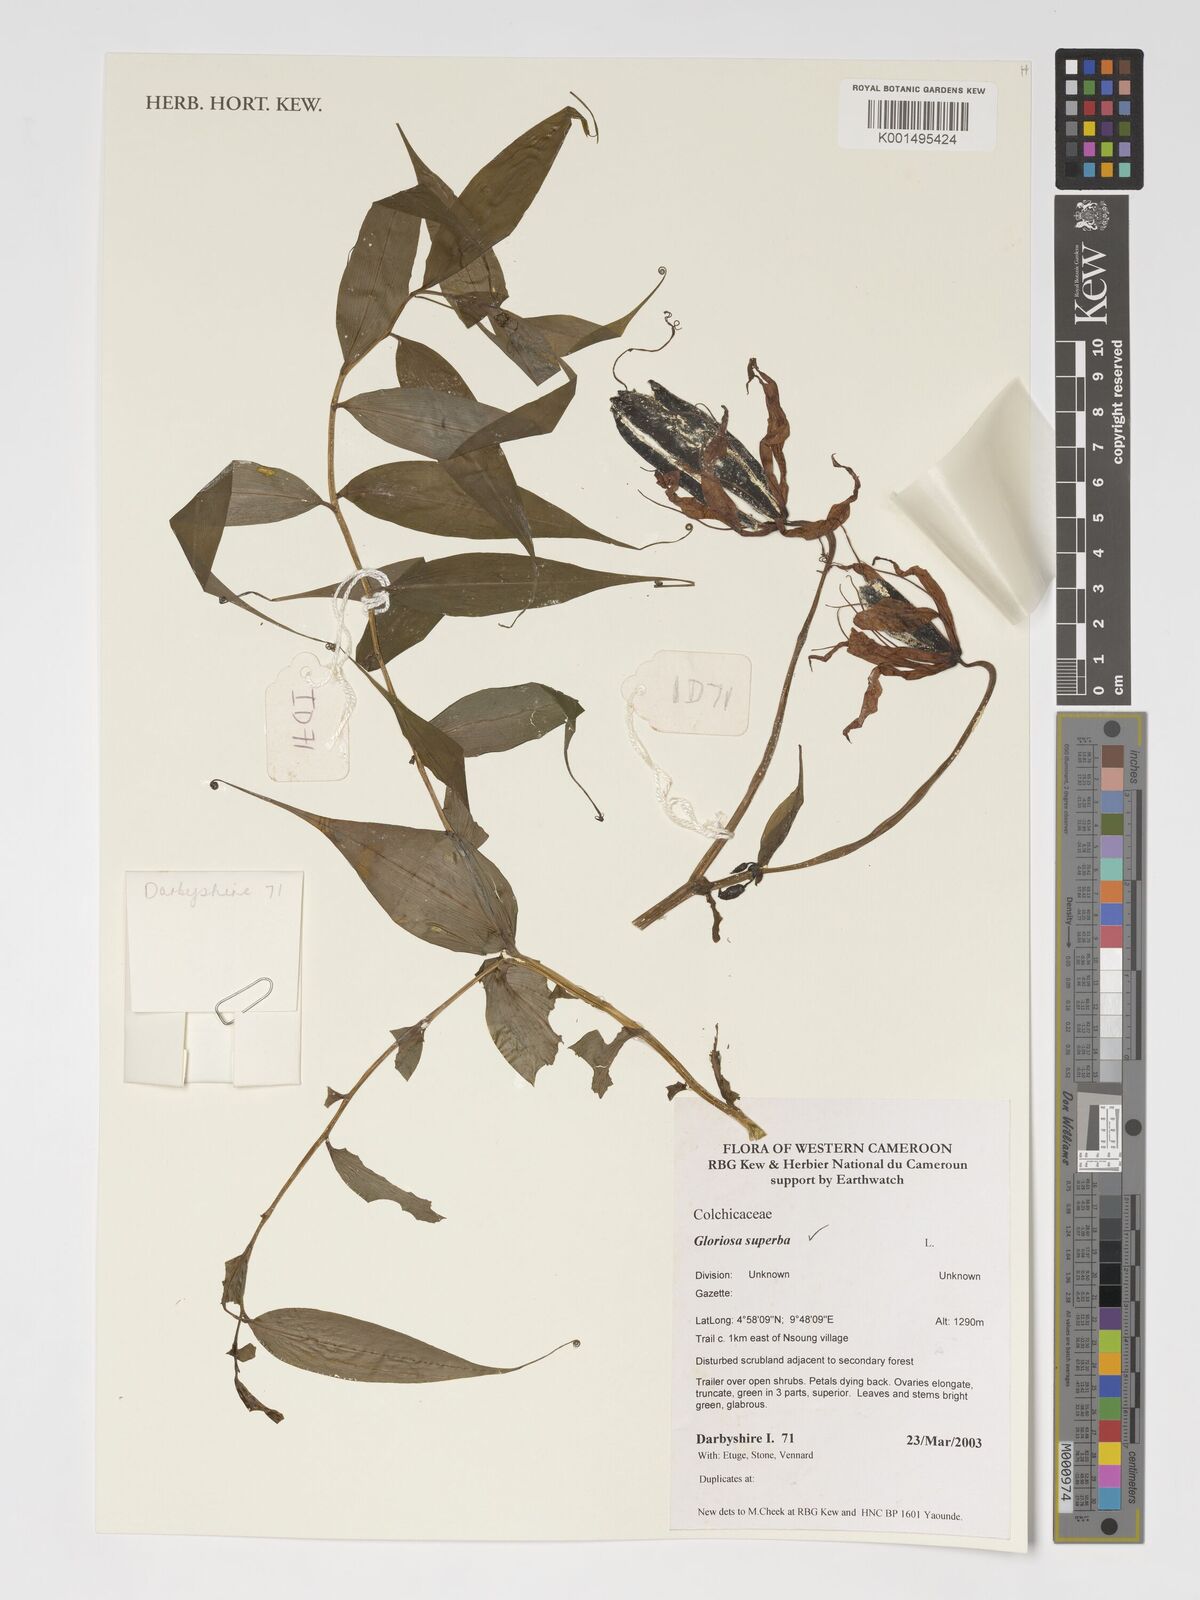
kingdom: Plantae
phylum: Tracheophyta
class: Liliopsida
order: Liliales
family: Colchicaceae
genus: Gloriosa
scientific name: Gloriosa superba
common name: Flame lily
